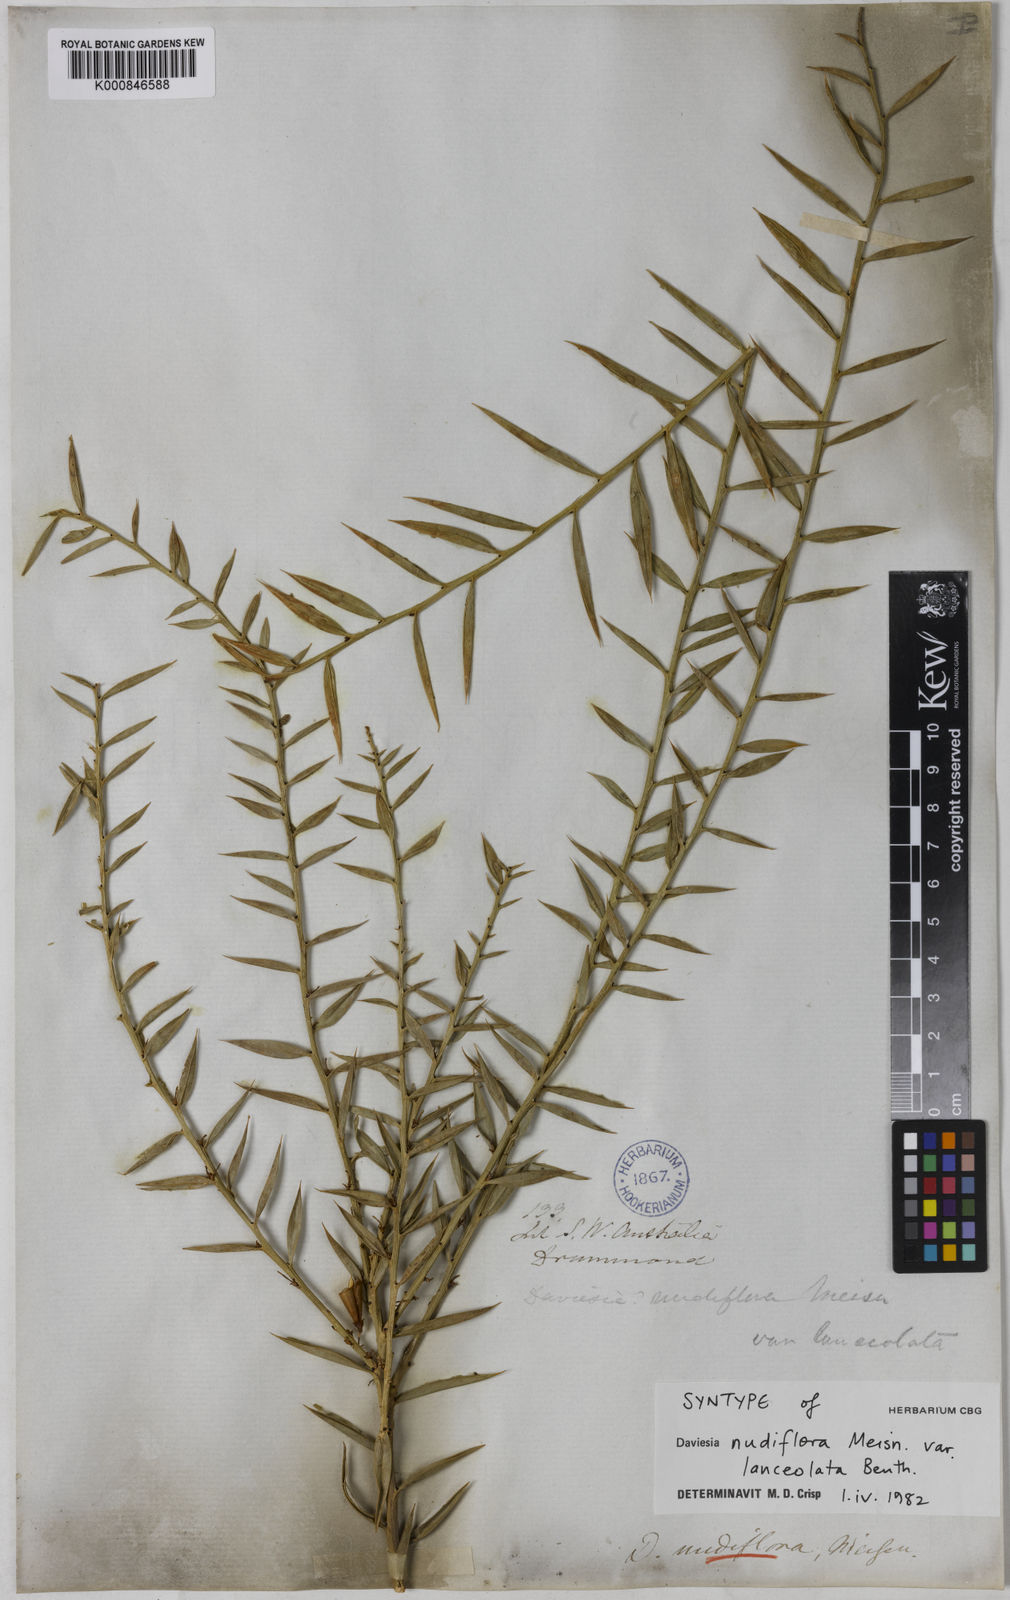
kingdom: Plantae
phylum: Tracheophyta
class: Magnoliopsida
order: Fabales
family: Fabaceae
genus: Daviesia
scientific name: Daviesia nudiflora
